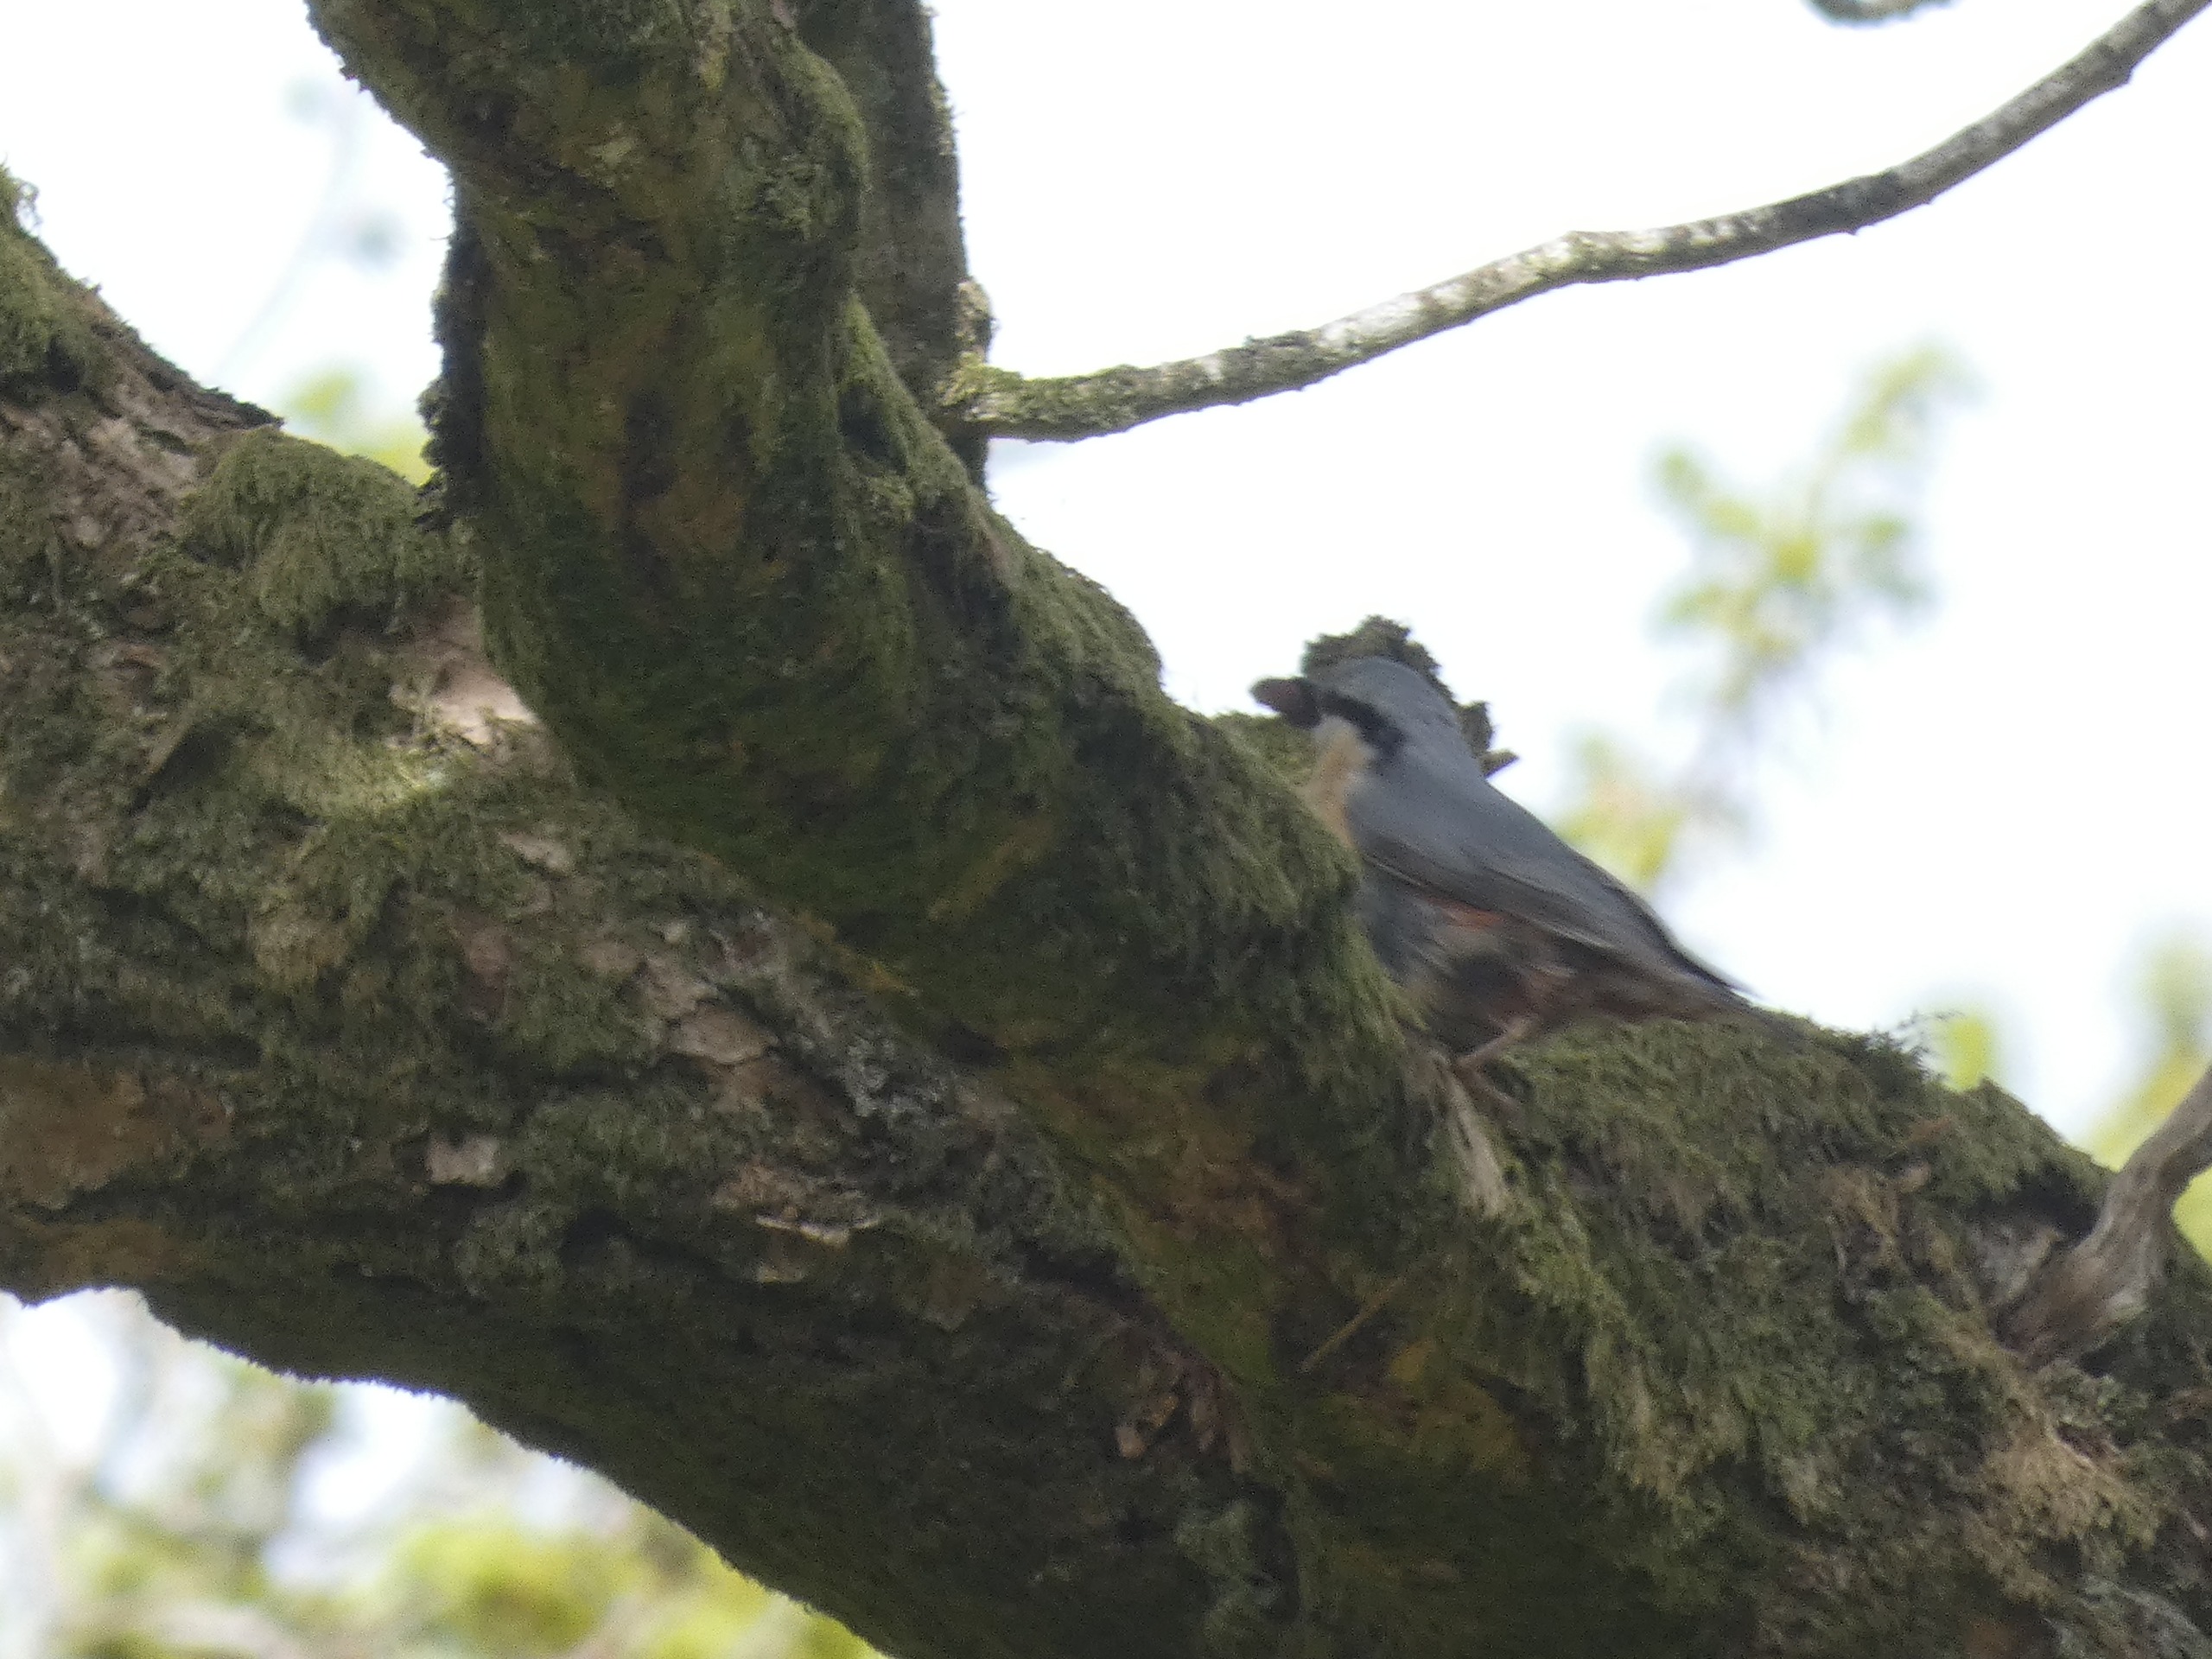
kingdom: Animalia
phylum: Chordata
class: Aves
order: Passeriformes
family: Sittidae
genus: Sitta
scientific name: Sitta europaea
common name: Spætmejse
